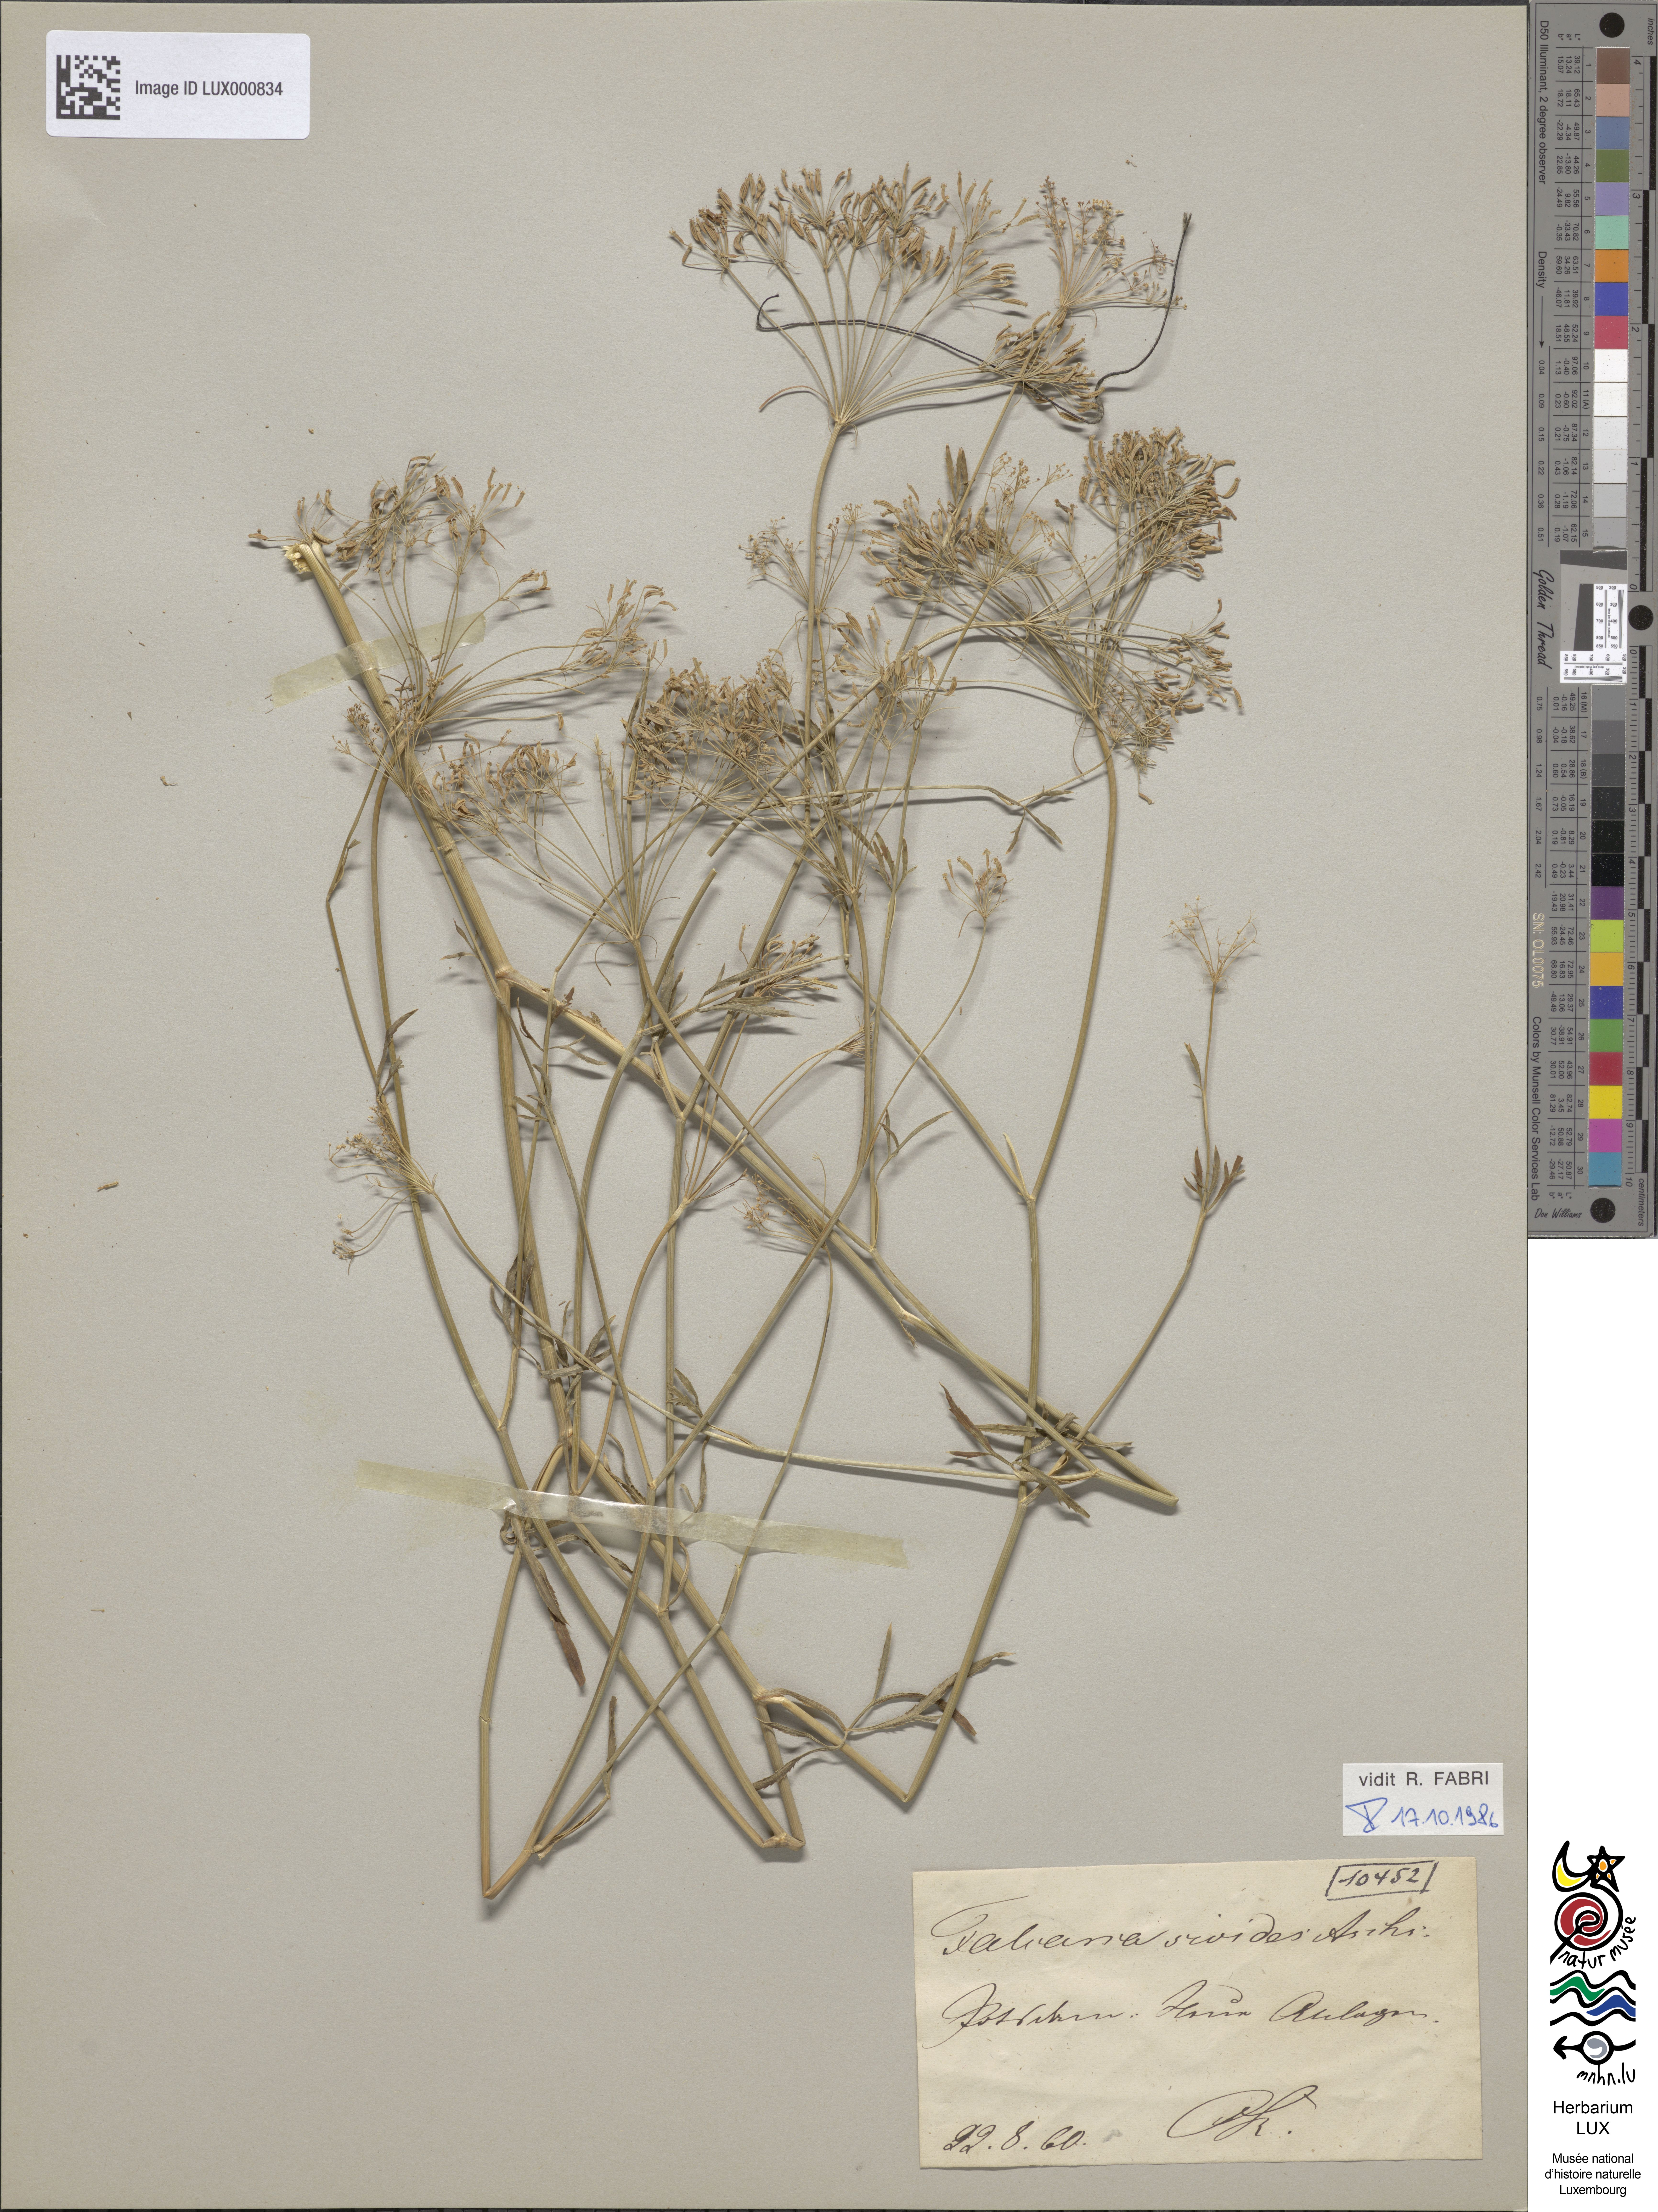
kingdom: Plantae
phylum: Tracheophyta
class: Magnoliopsida
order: Apiales
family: Apiaceae
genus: Falcaria
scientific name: Falcaria vulgaris
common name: Longleaf
